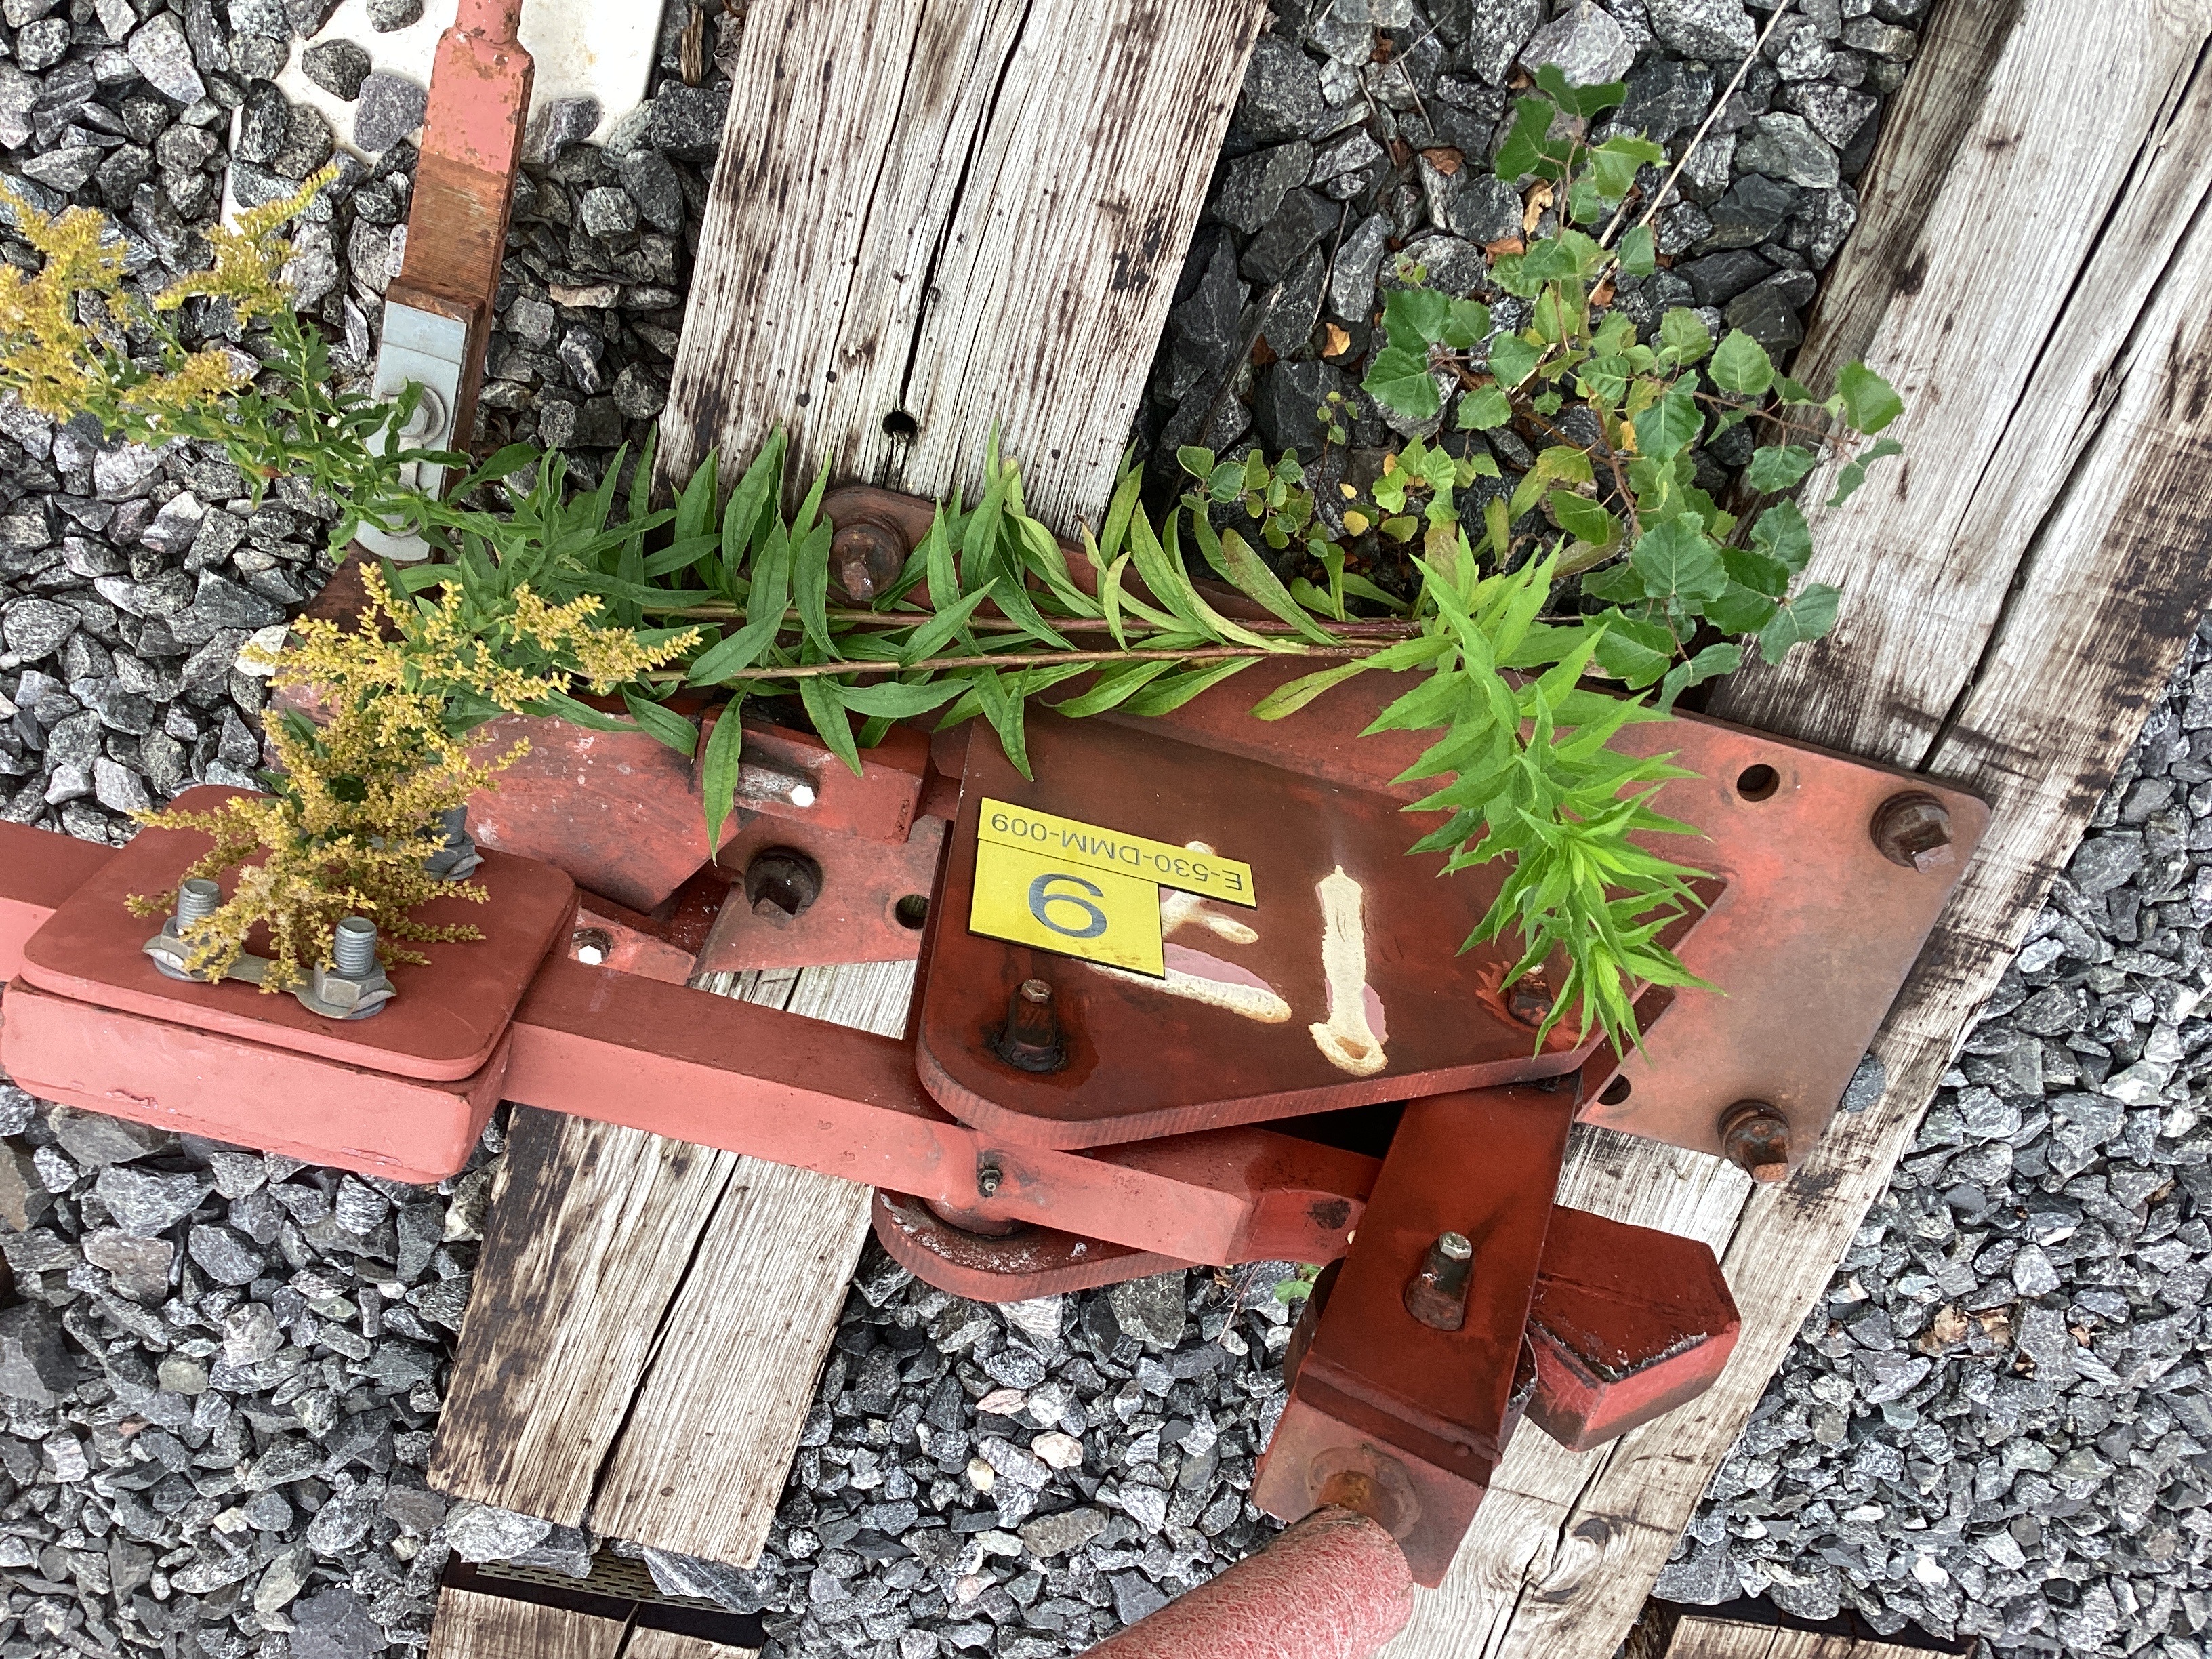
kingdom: Plantae
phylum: Tracheophyta
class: Magnoliopsida
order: Asterales
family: Asteraceae
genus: Solidago
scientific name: Solidago canadensis
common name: kanadagullris
